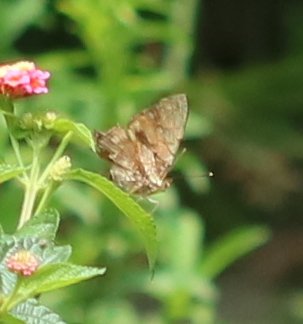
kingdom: Animalia
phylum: Arthropoda
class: Insecta
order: Lepidoptera
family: Nymphalidae
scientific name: Nymphalidae
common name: Brushfoots
